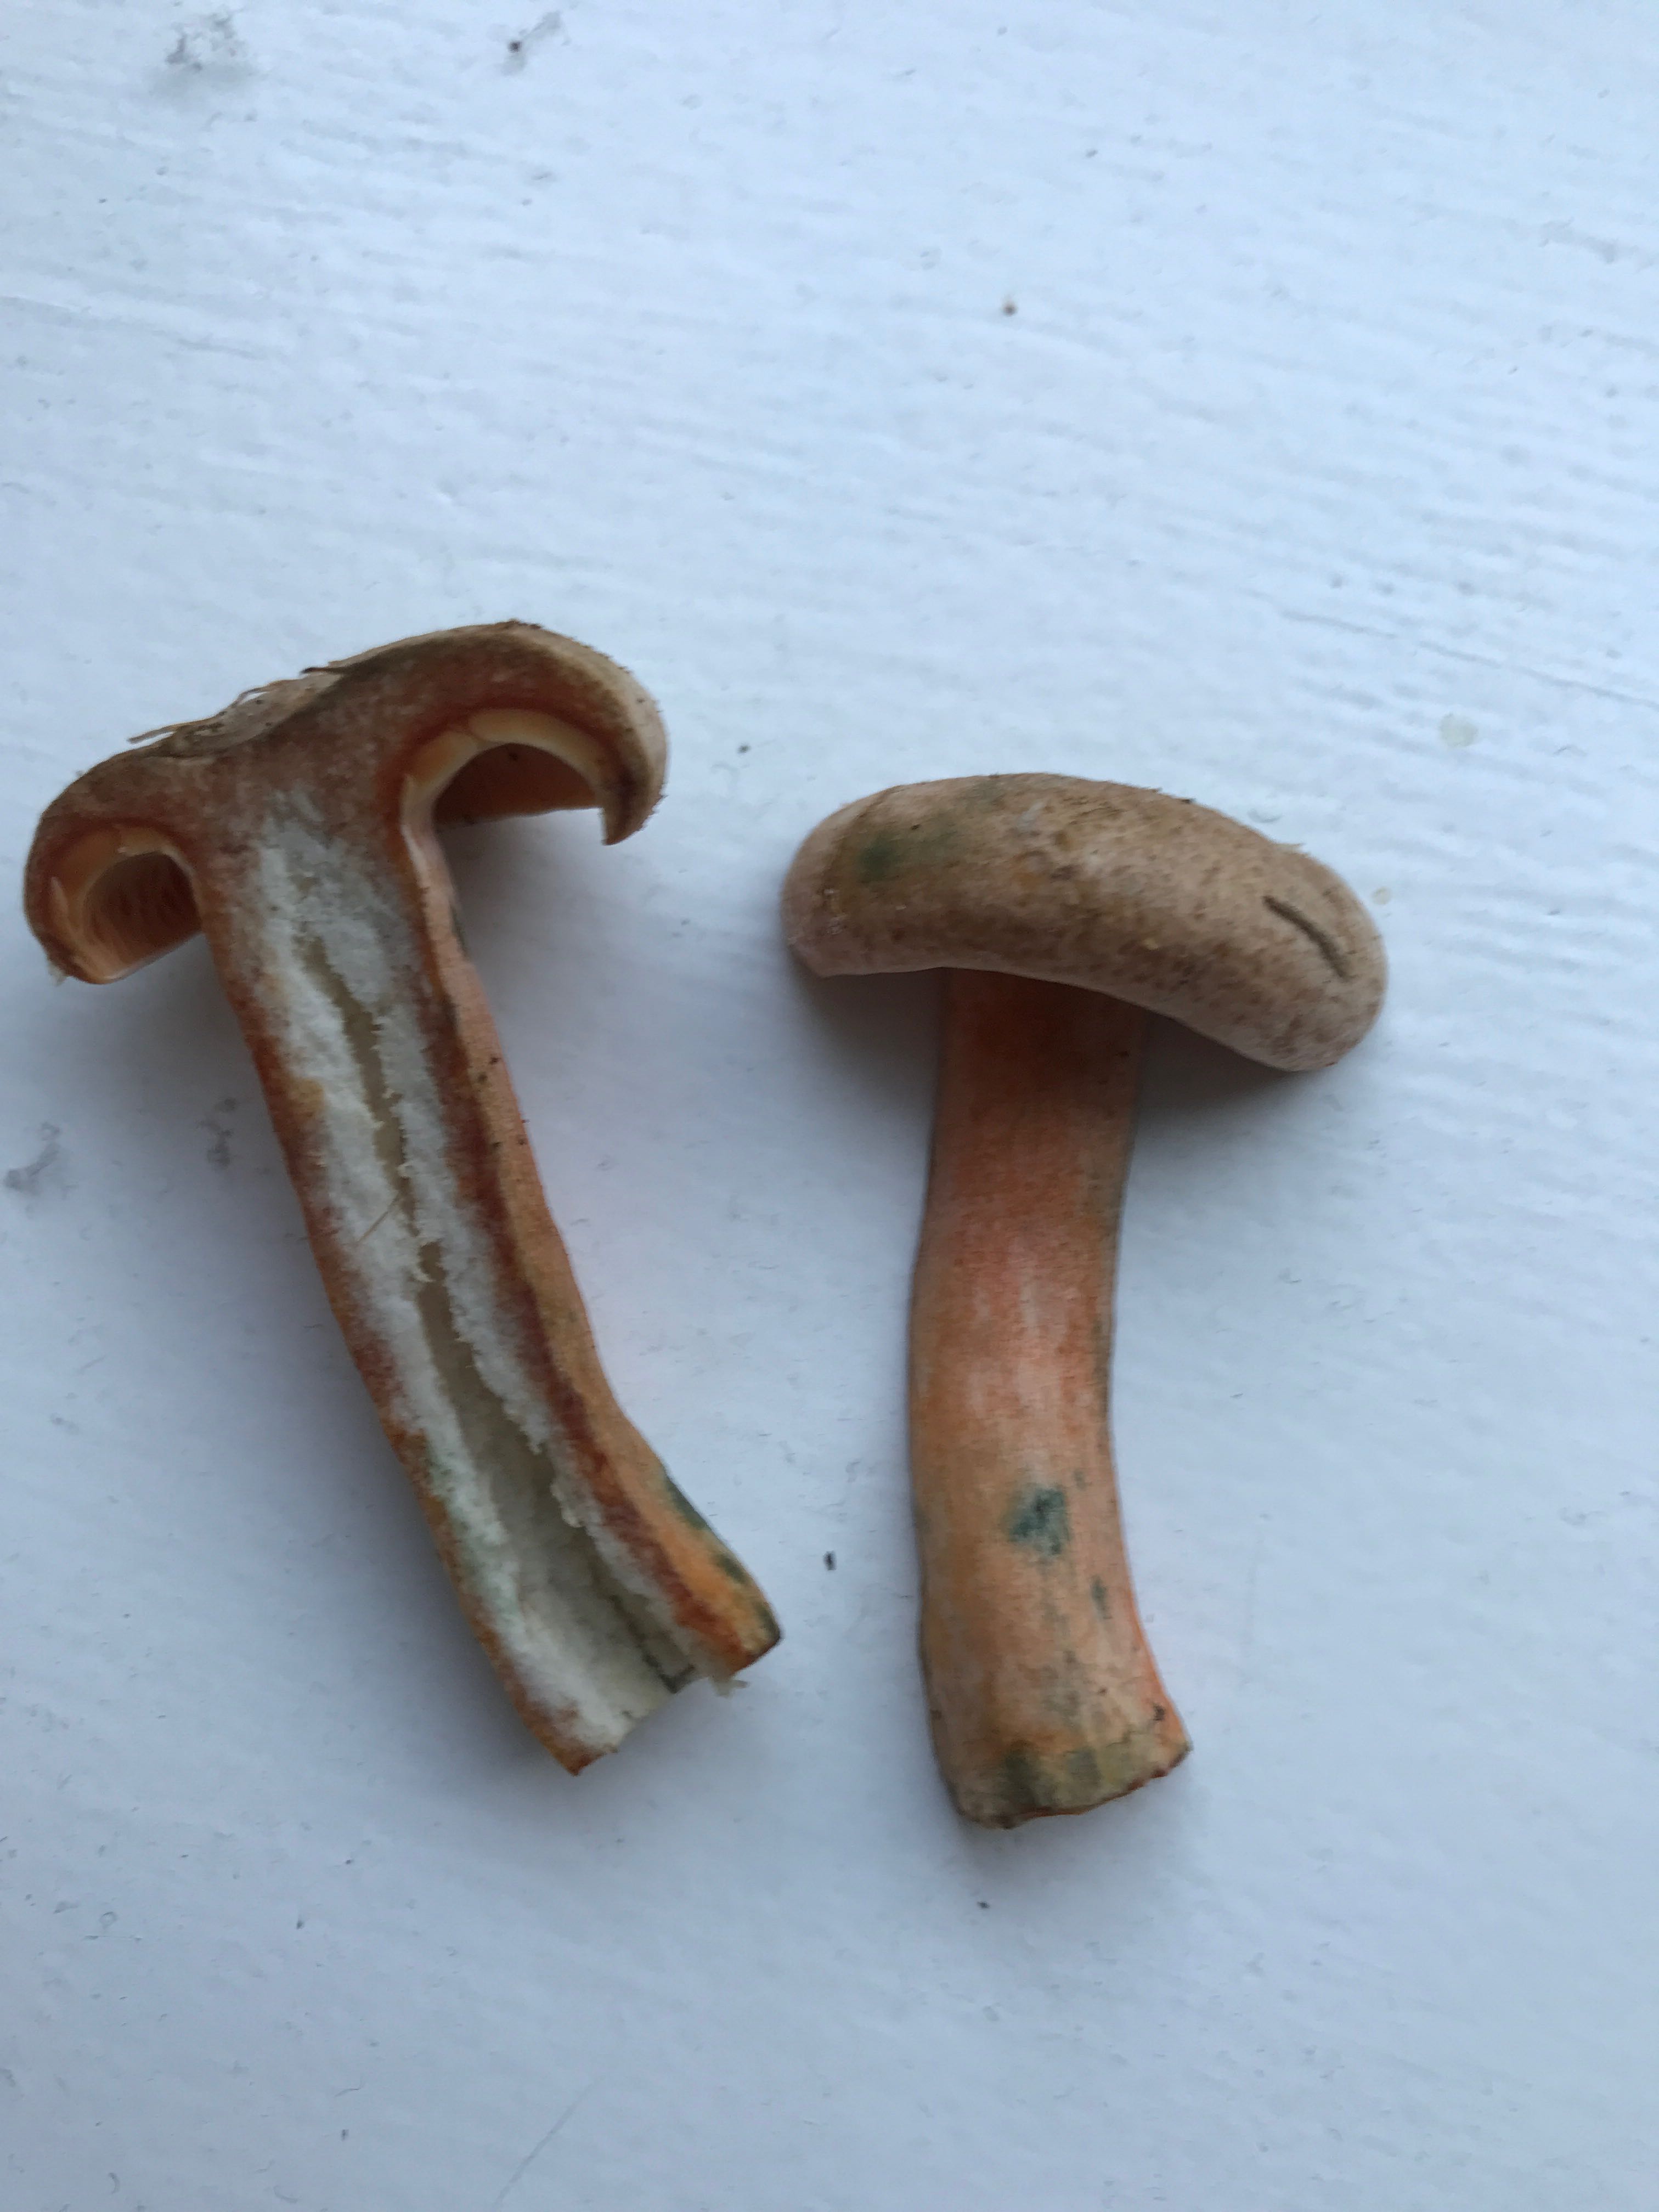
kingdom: Fungi
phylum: Basidiomycota
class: Agaricomycetes
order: Russulales
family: Russulaceae
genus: Lactarius
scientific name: Lactarius deterrimus
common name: gran-mælkehat
